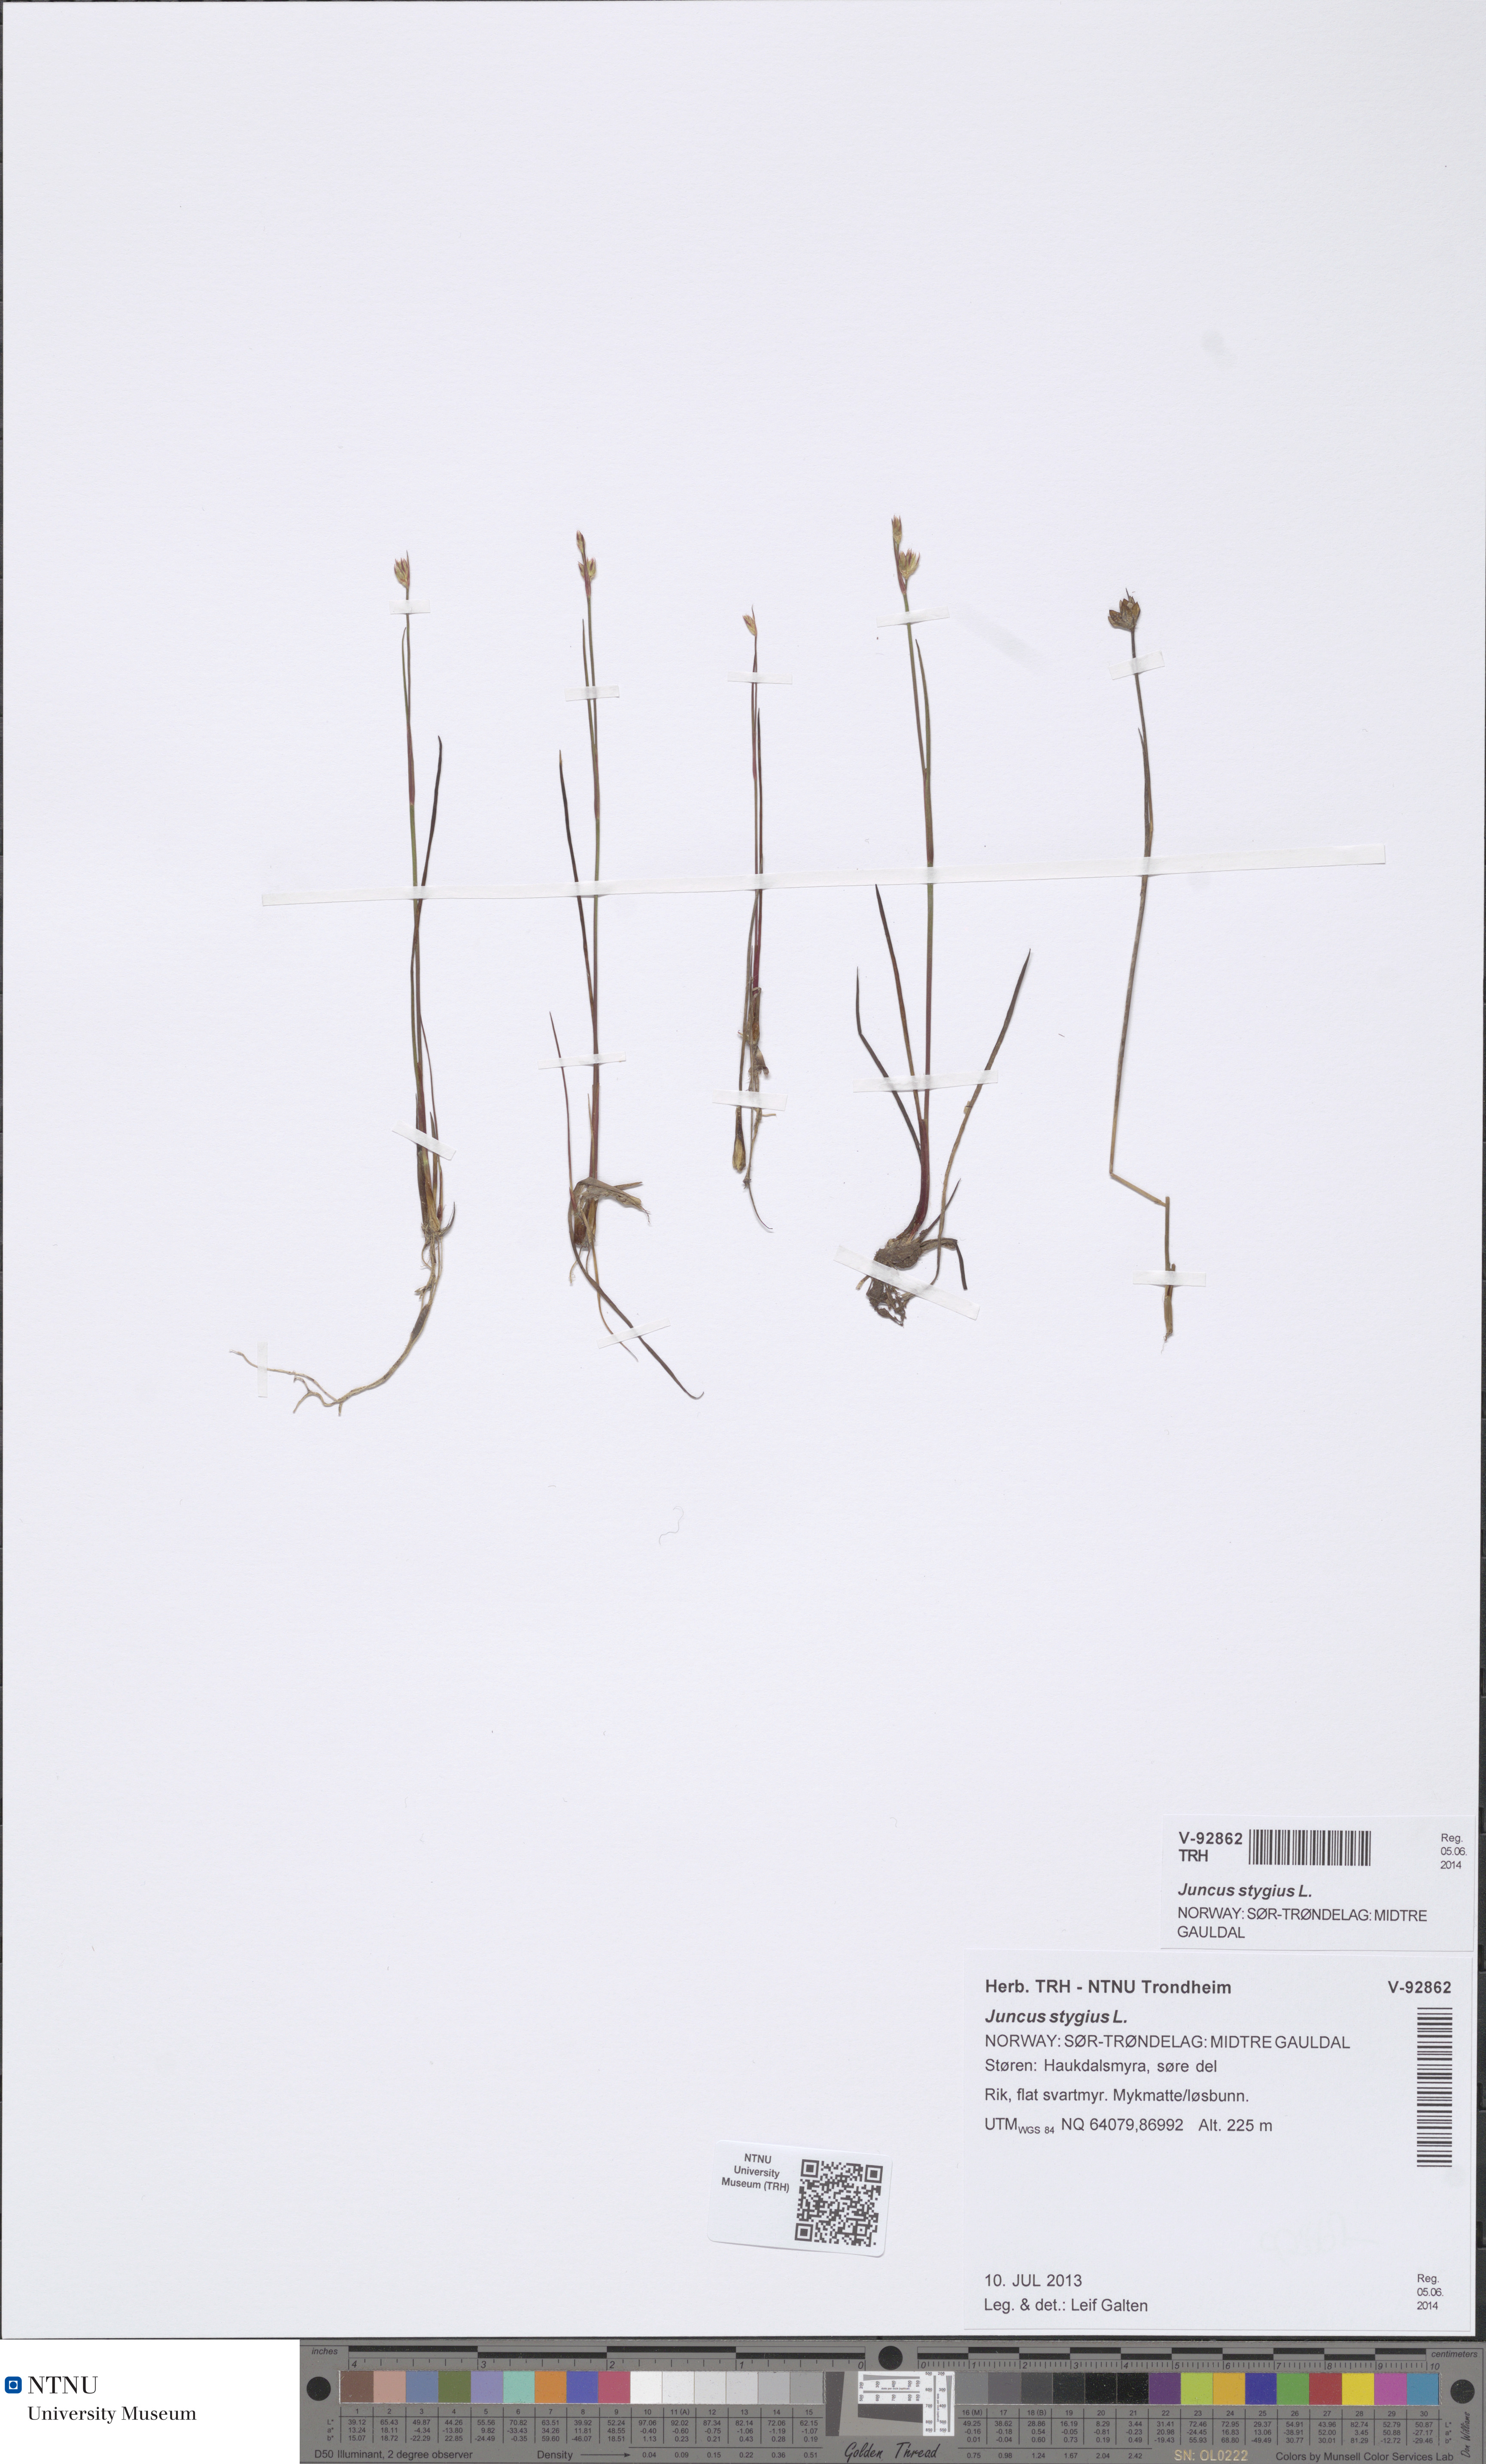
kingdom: Plantae
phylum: Tracheophyta
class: Liliopsida
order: Poales
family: Juncaceae
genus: Juncus
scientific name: Juncus stygius
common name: Bog rush
